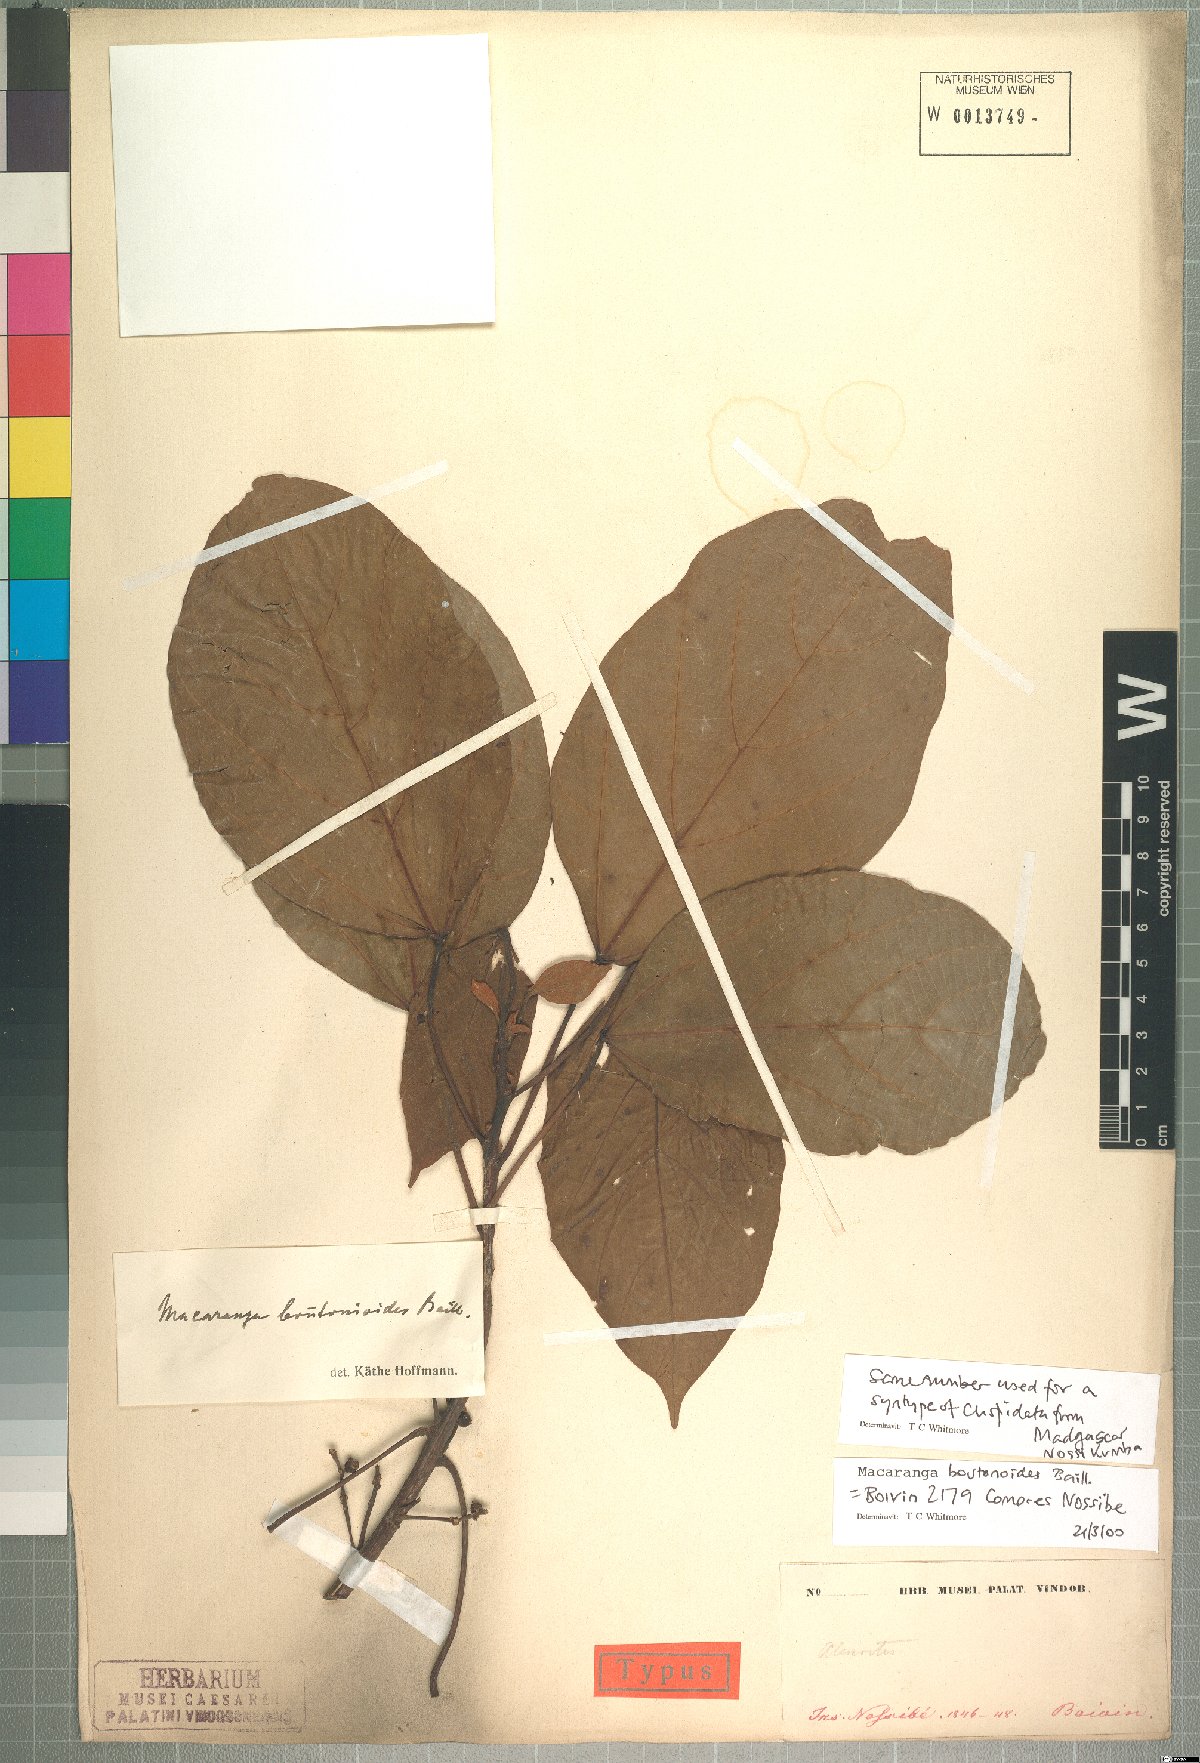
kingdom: Plantae
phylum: Tracheophyta
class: Magnoliopsida
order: Malpighiales
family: Euphorbiaceae
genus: Macaranga
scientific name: Macaranga boutonioides
